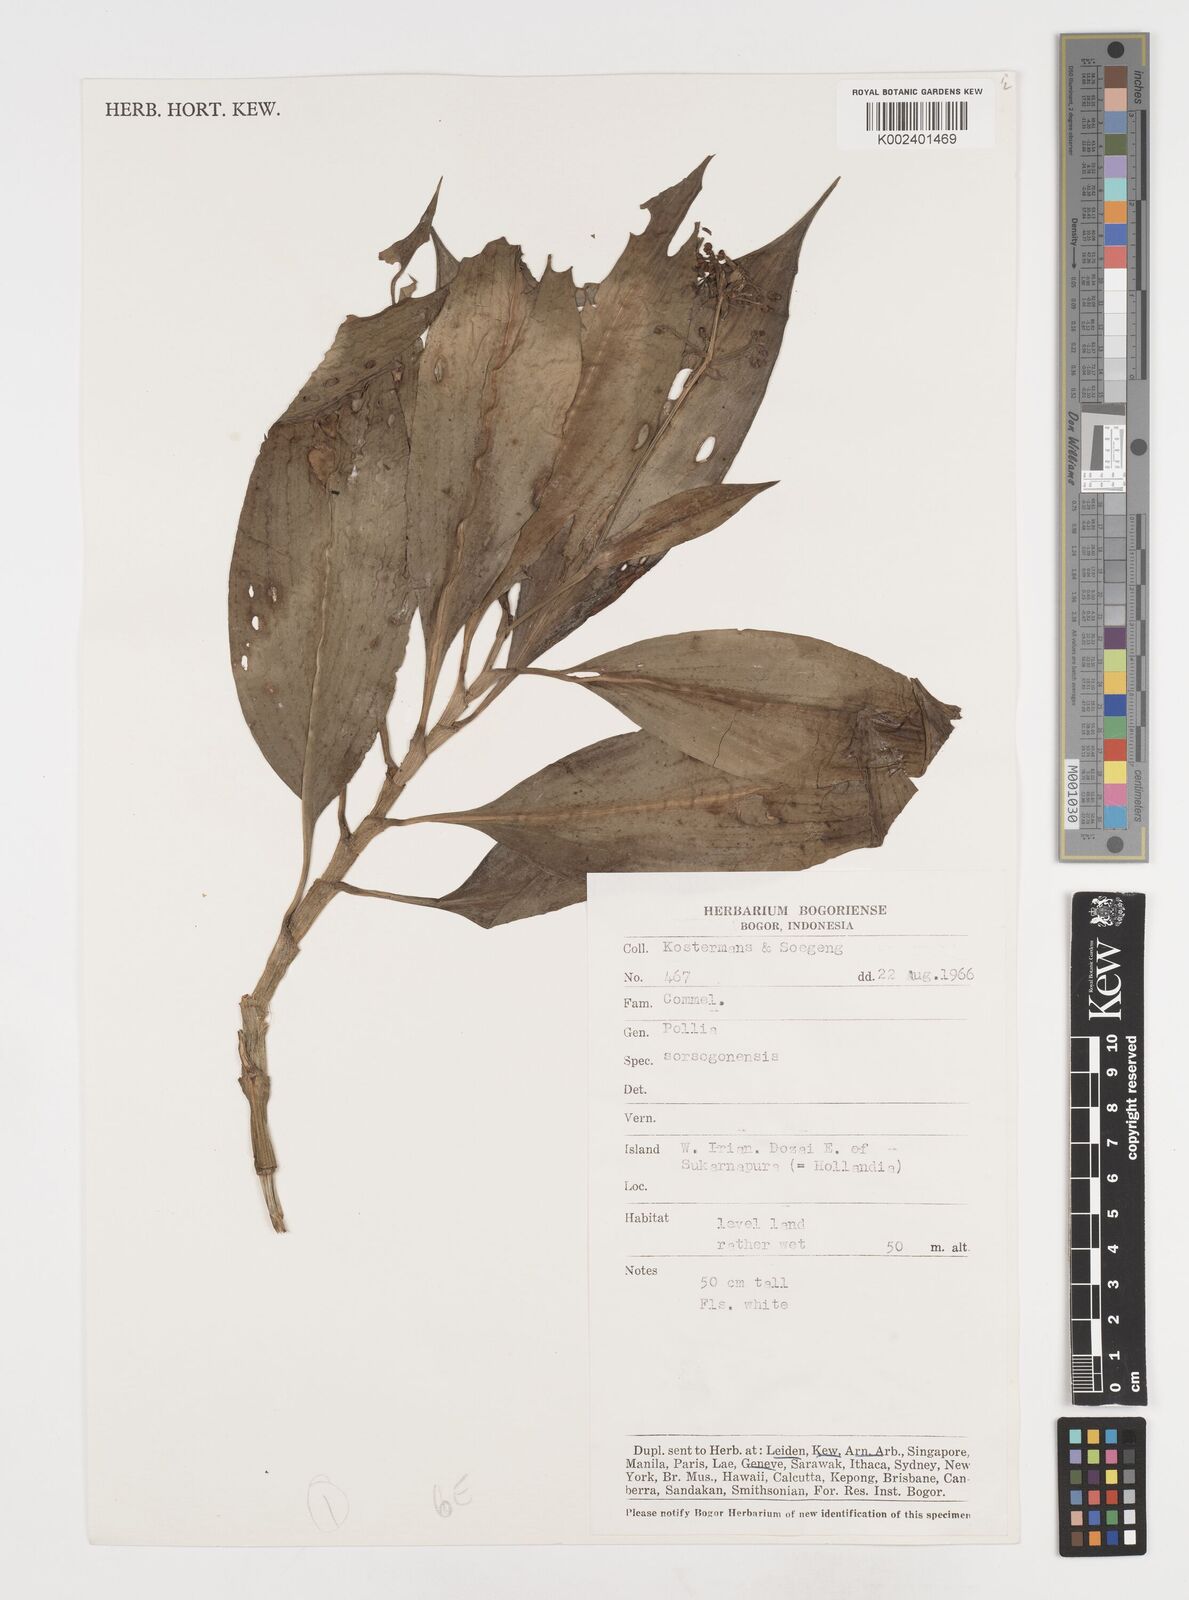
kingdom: Plantae
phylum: Tracheophyta
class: Liliopsida
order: Commelinales
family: Commelinaceae
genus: Pollia
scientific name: Pollia secundiflora
